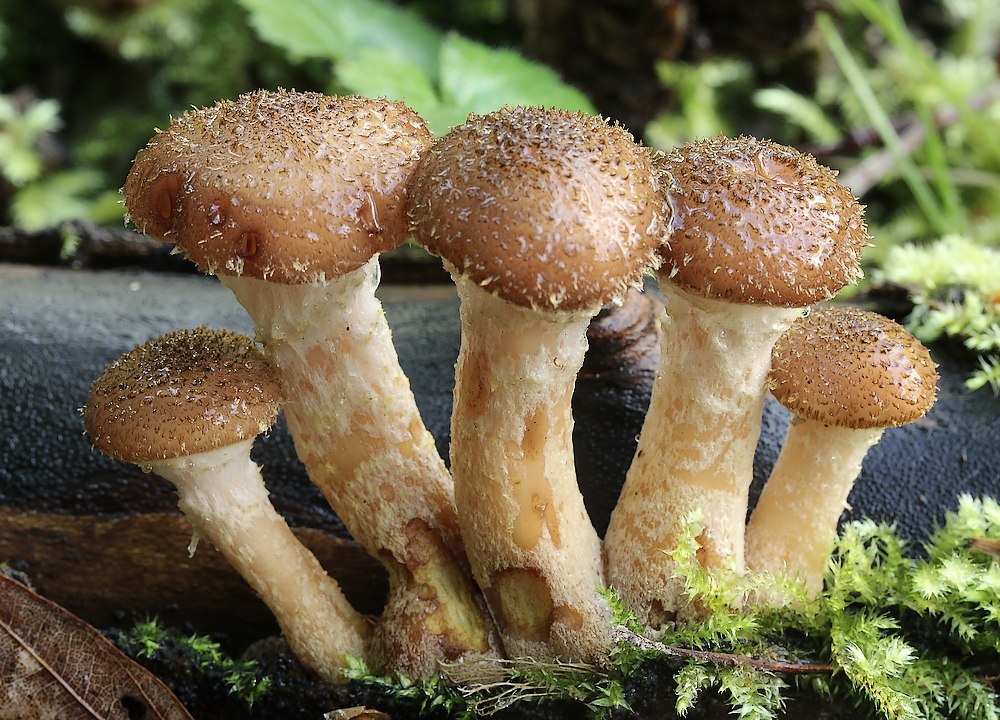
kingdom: Fungi
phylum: Basidiomycota
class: Agaricomycetes
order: Agaricales
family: Physalacriaceae
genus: Armillaria
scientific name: Armillaria lutea
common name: køllestokket honningsvamp
